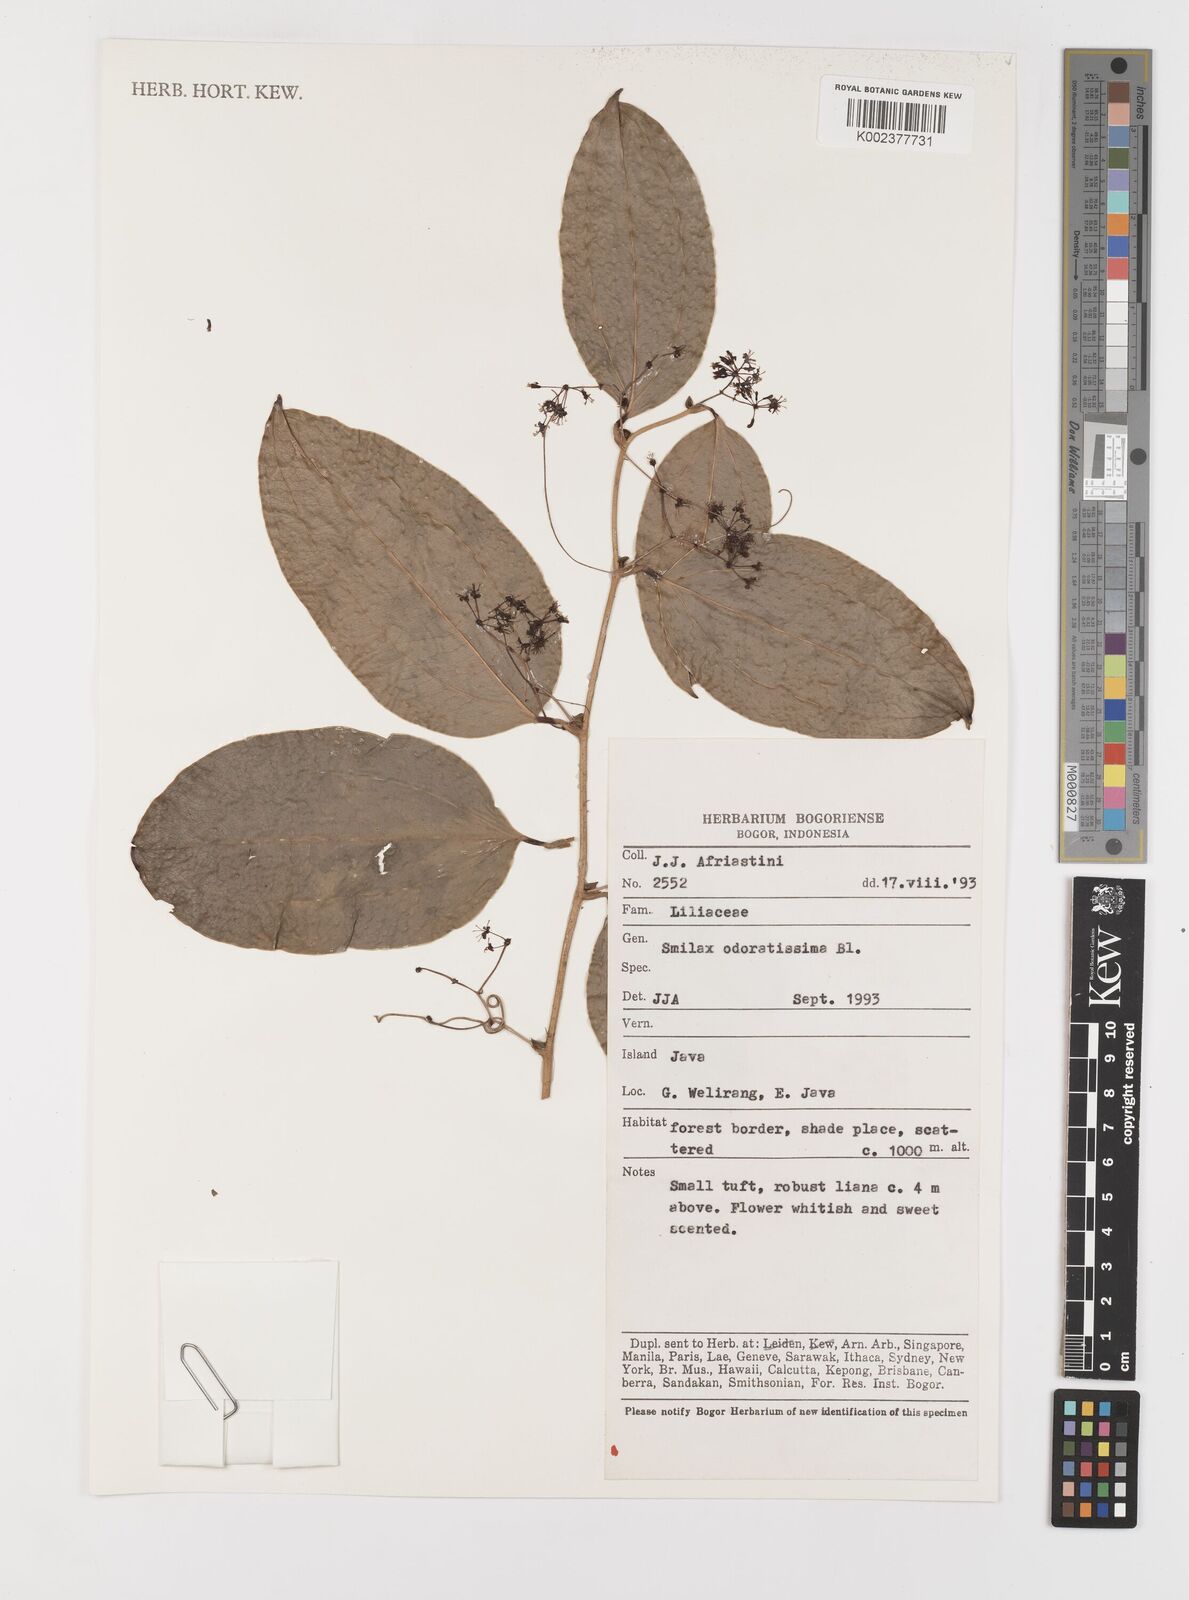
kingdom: Plantae
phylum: Tracheophyta
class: Liliopsida
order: Liliales
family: Smilacaceae
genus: Smilax
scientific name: Smilax odoratissima
